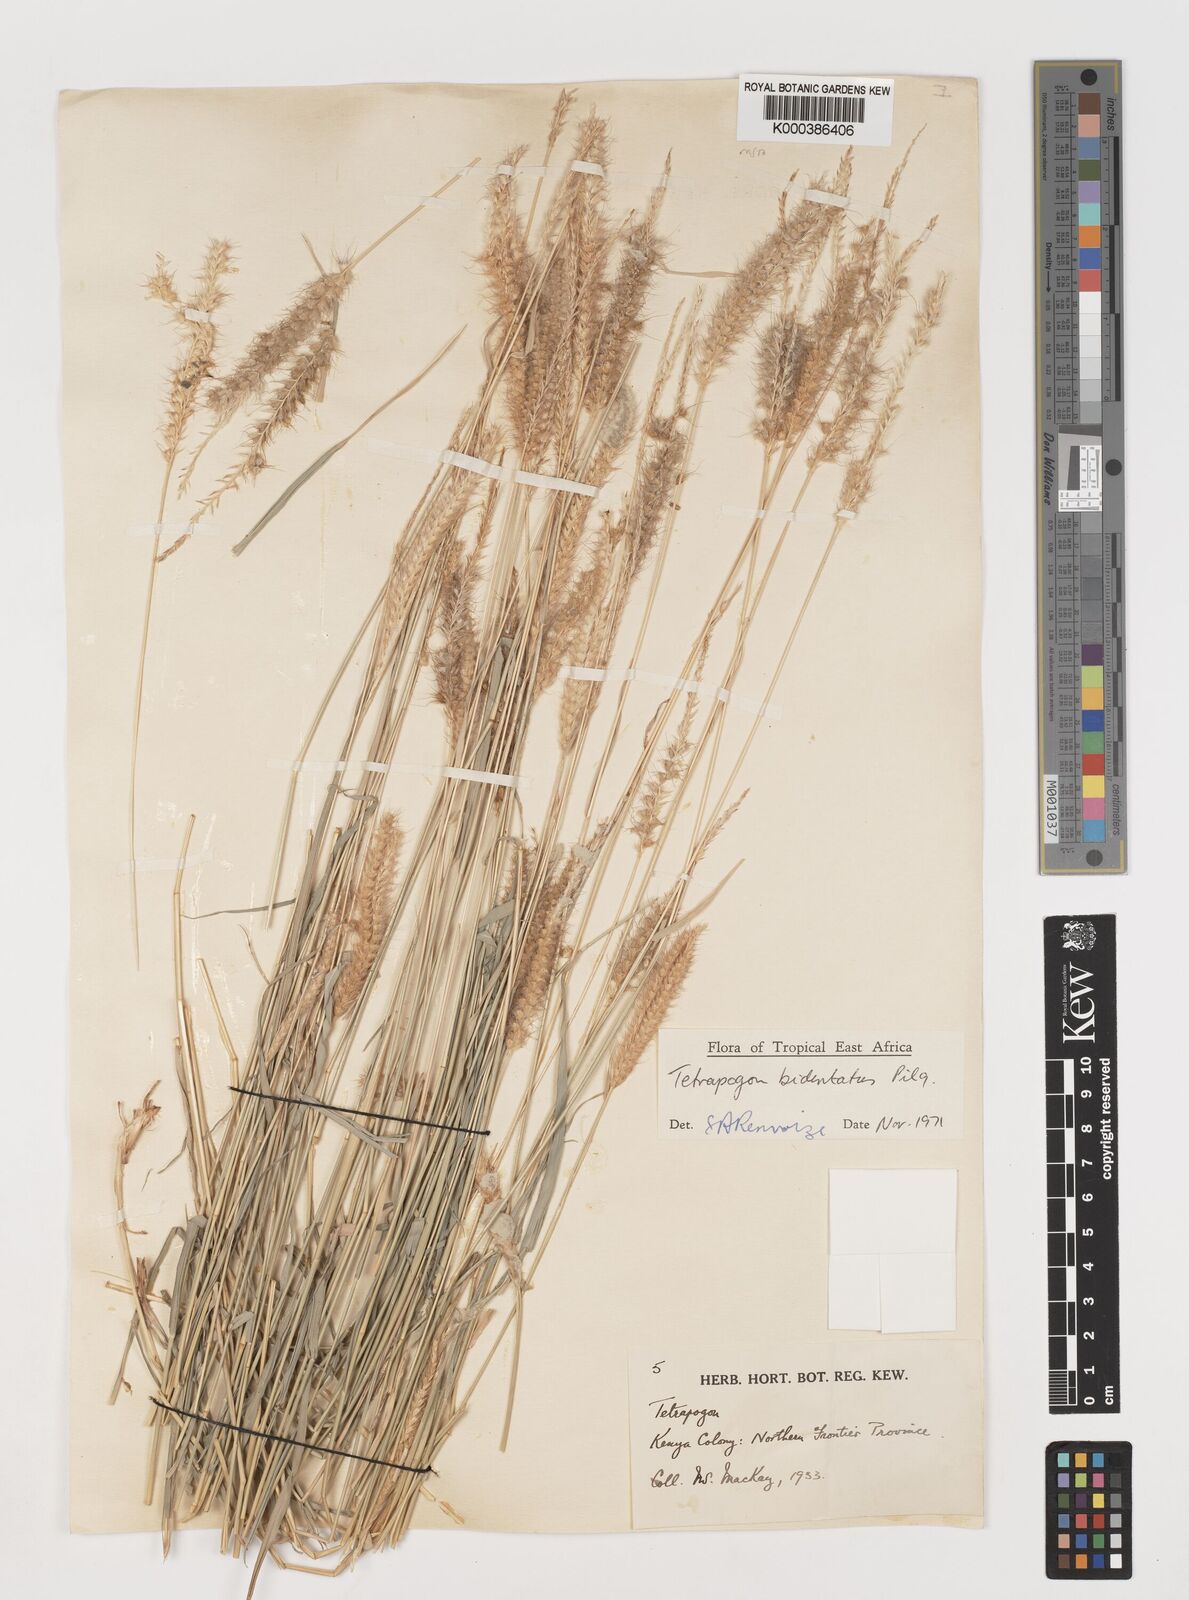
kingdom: Plantae
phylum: Tracheophyta
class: Liliopsida
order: Poales
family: Poaceae
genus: Tetrapogon
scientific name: Tetrapogon bidentatus
